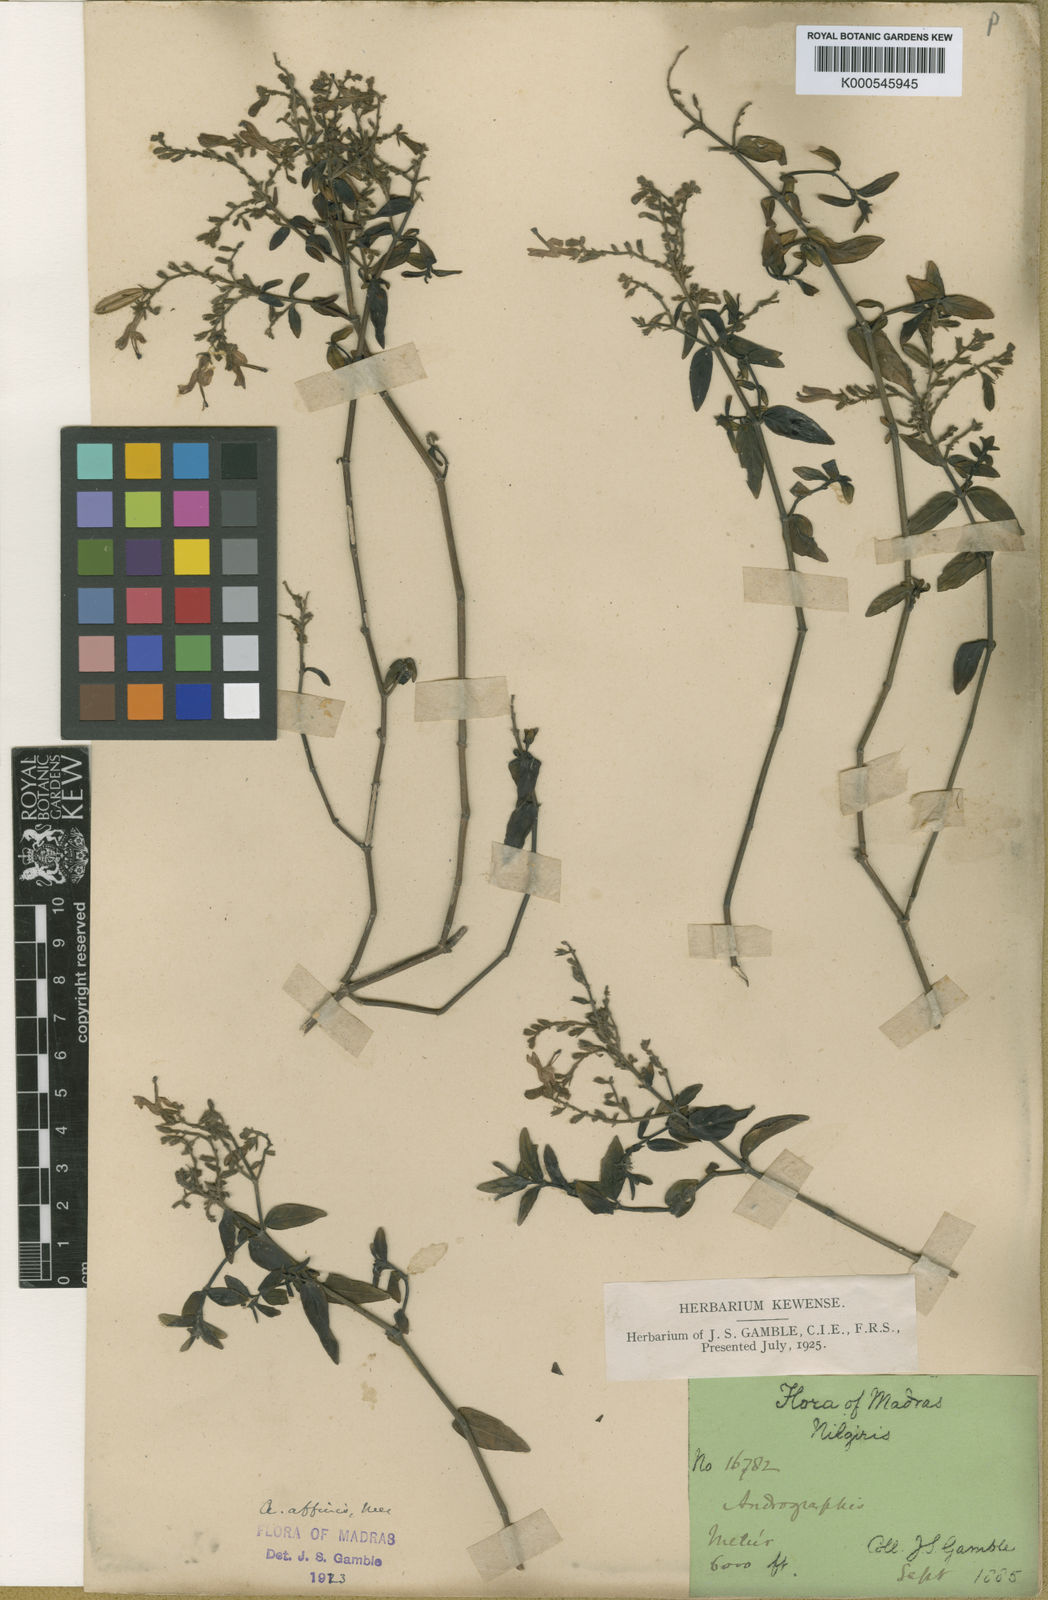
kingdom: Plantae
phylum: Tracheophyta
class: Magnoliopsida
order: Lamiales
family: Acanthaceae
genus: Andrographis
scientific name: Andrographis affinis
